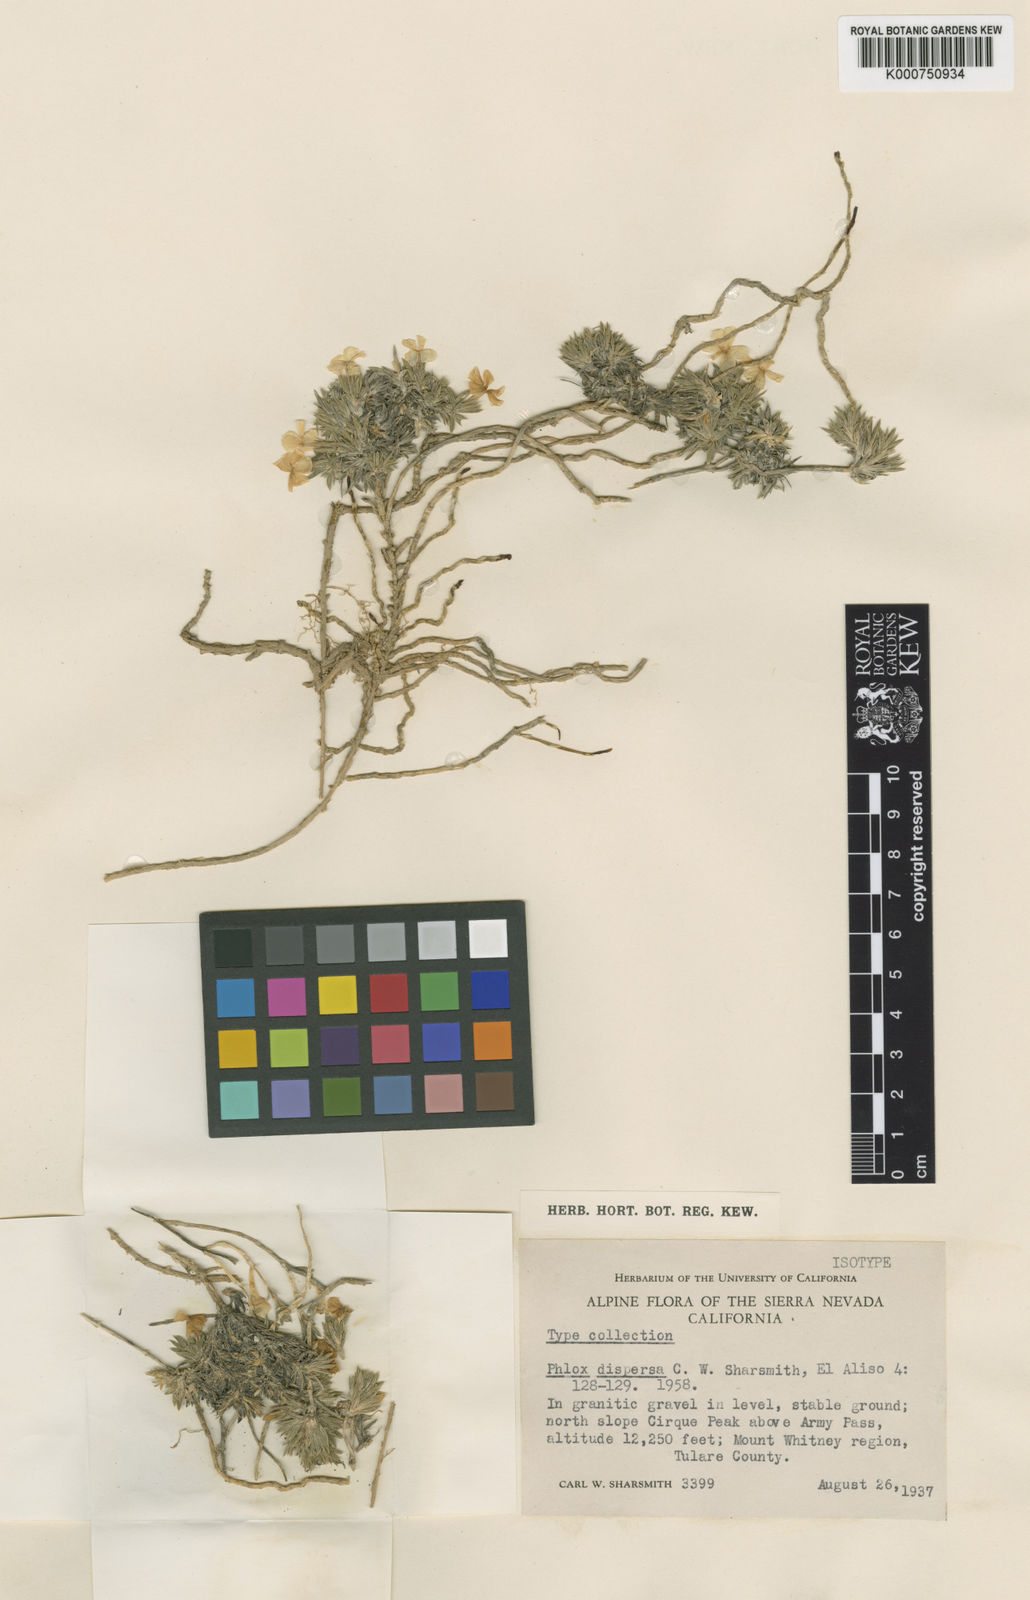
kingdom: Plantae
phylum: Tracheophyta
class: Magnoliopsida
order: Ericales
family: Polemoniaceae
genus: Phlox
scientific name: Phlox dispersa
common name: High sierra phlox
